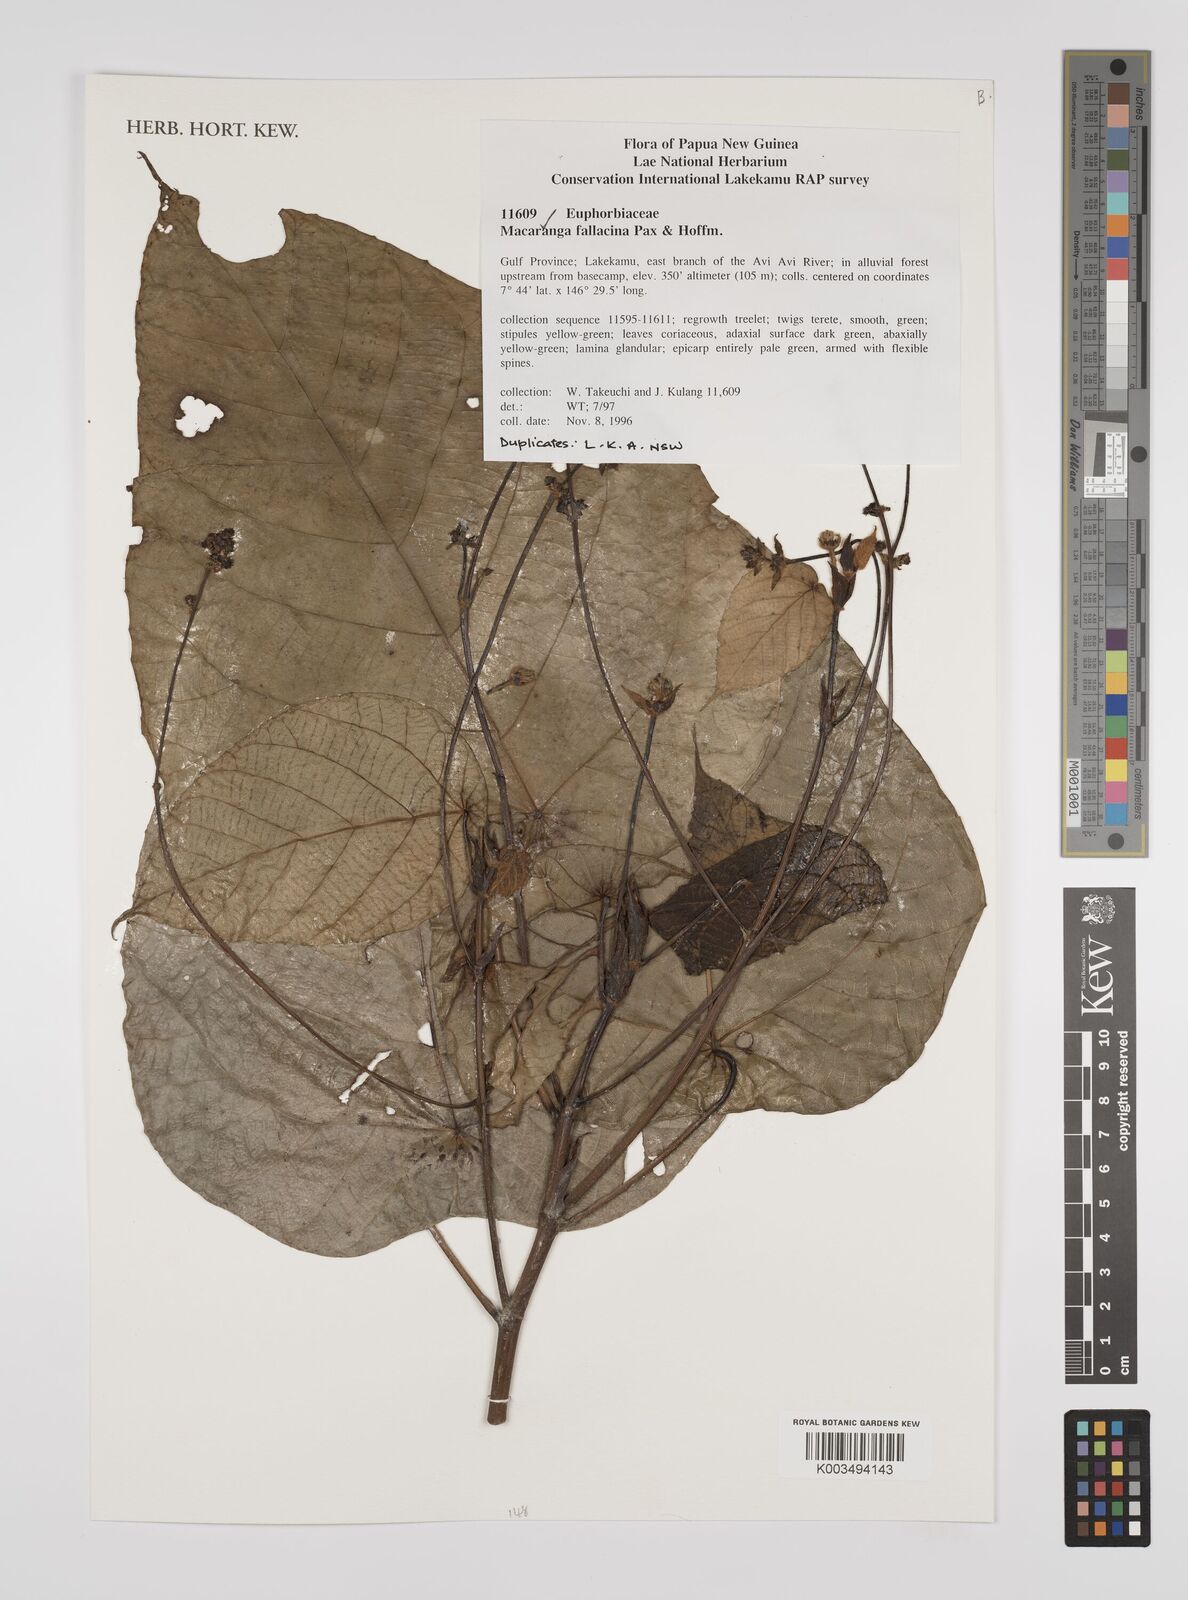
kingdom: Plantae
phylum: Tracheophyta
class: Magnoliopsida
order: Malpighiales
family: Euphorbiaceae
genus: Macaranga
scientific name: Macaranga fallacina
